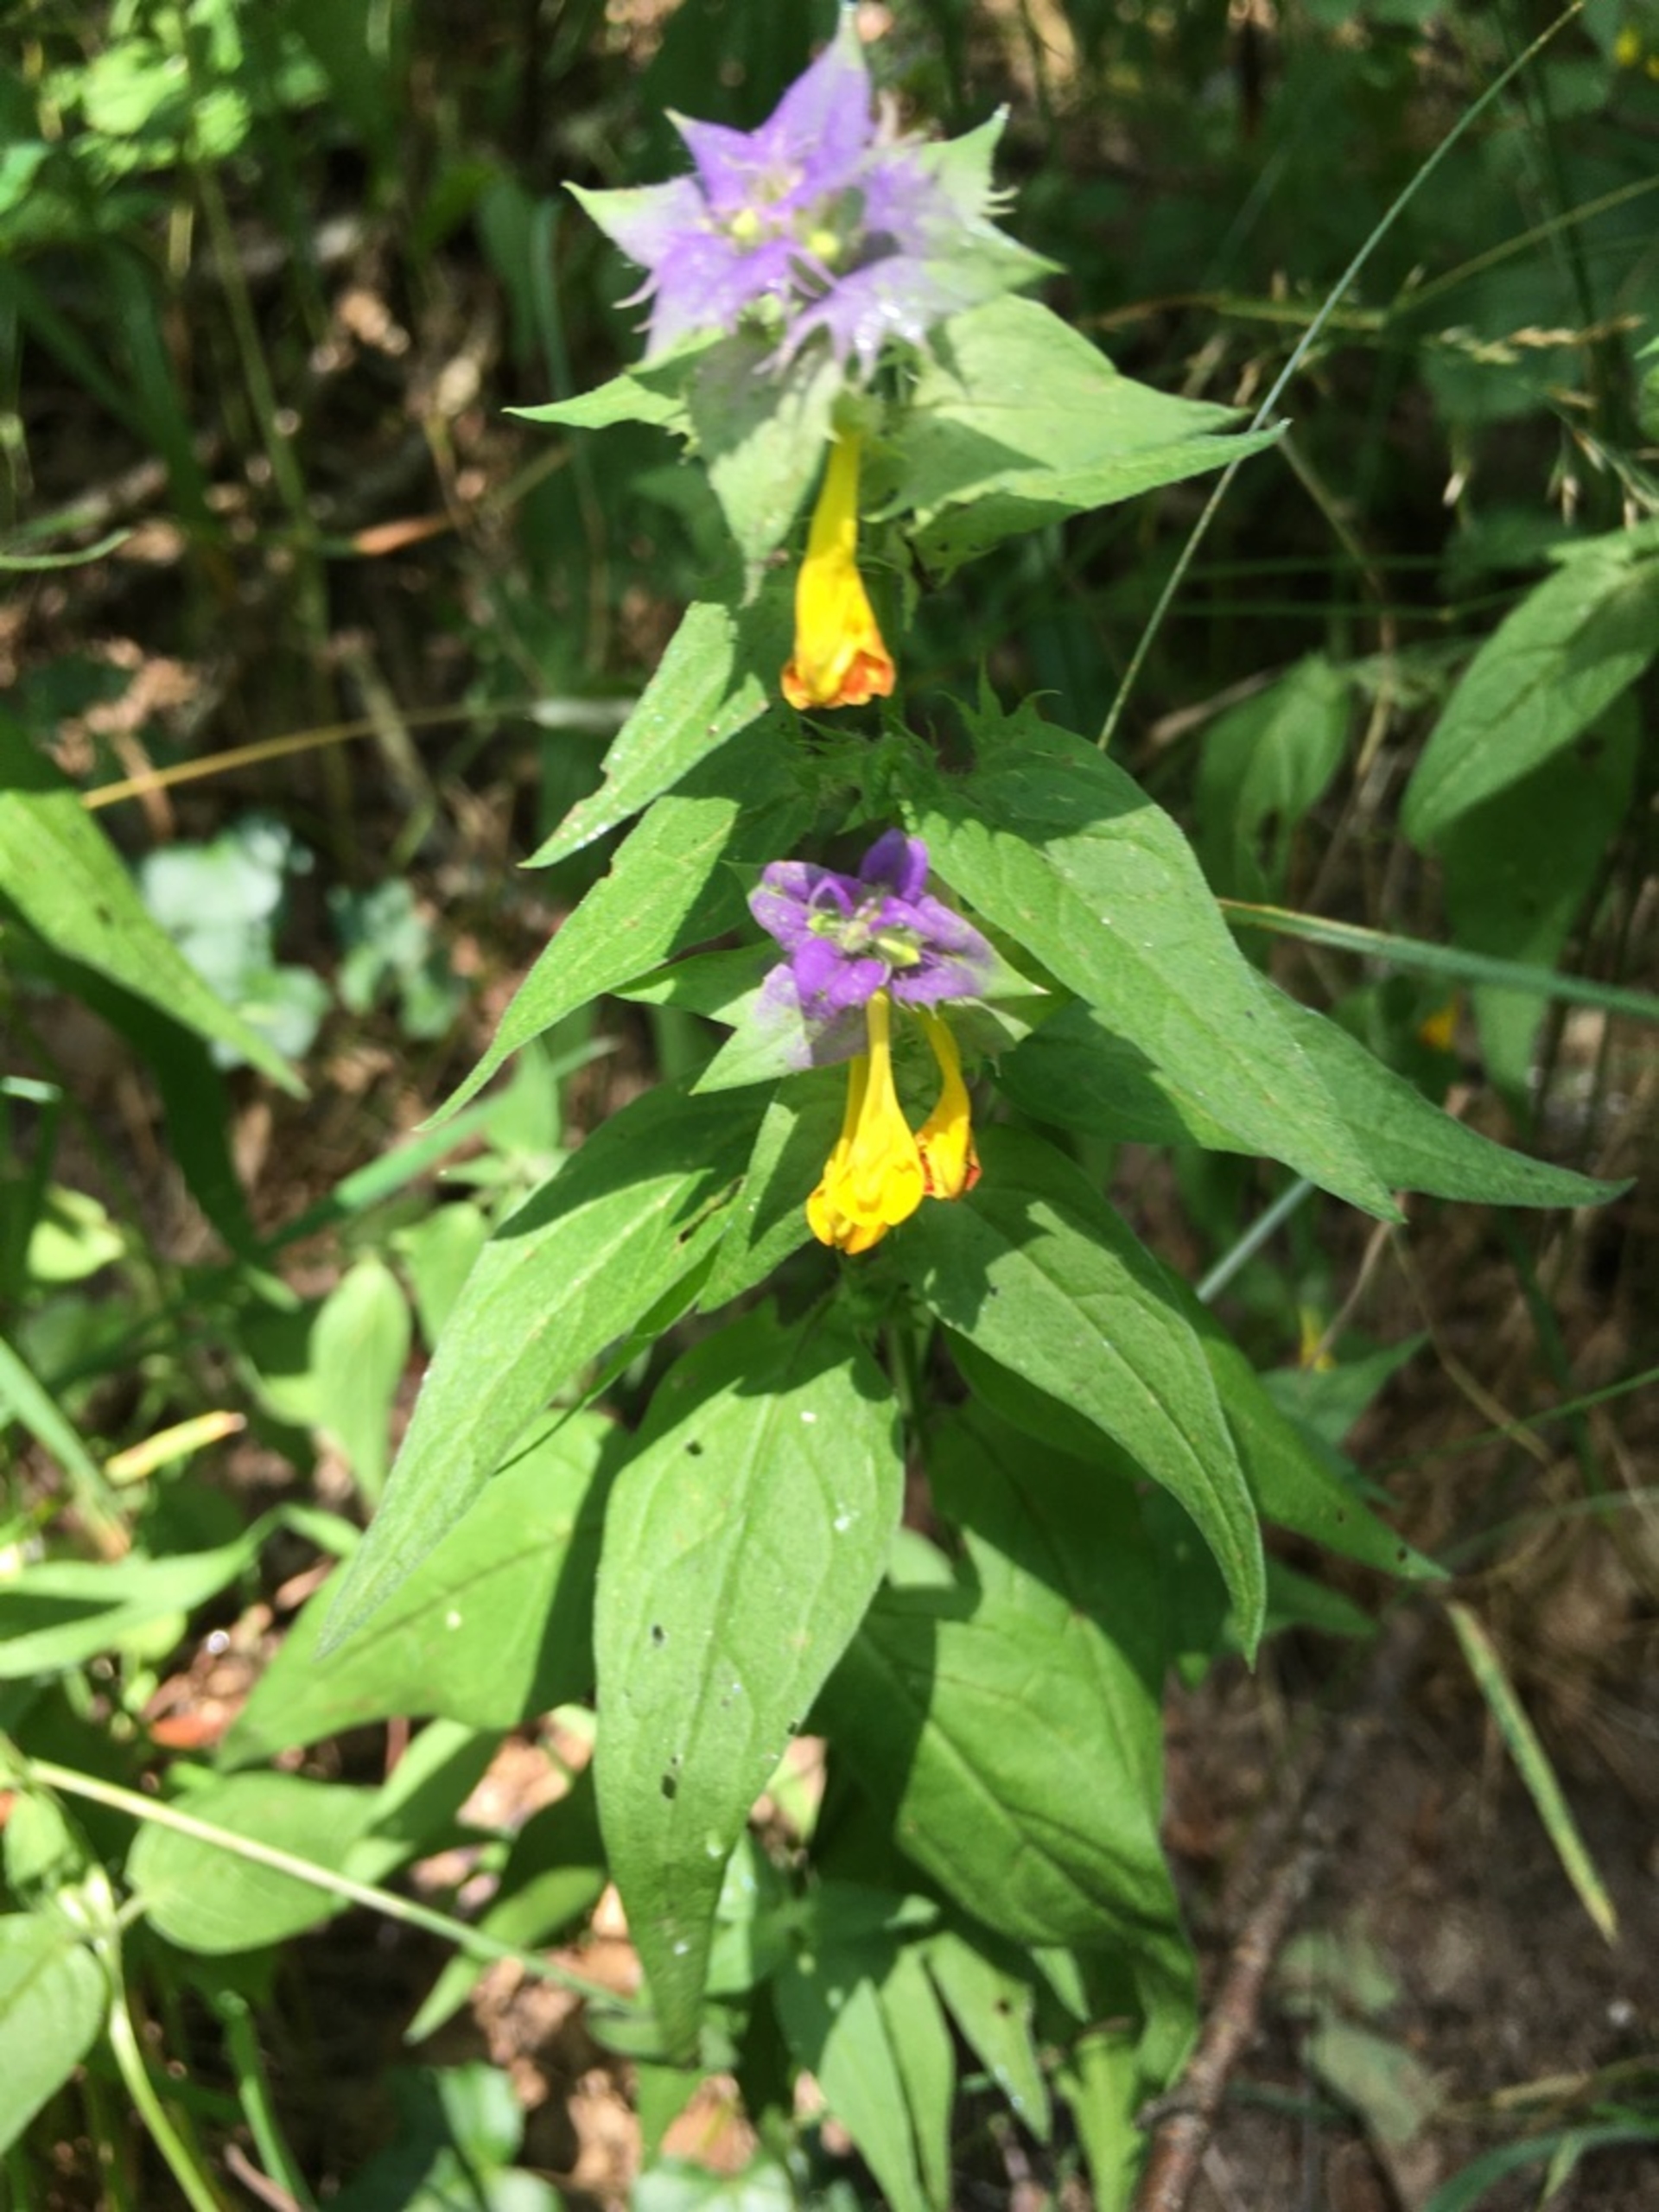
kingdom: Plantae
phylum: Tracheophyta
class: Magnoliopsida
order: Lamiales
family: Orobanchaceae
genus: Melampyrum
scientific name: Melampyrum nemorosum
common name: Blåtoppet kohvede
